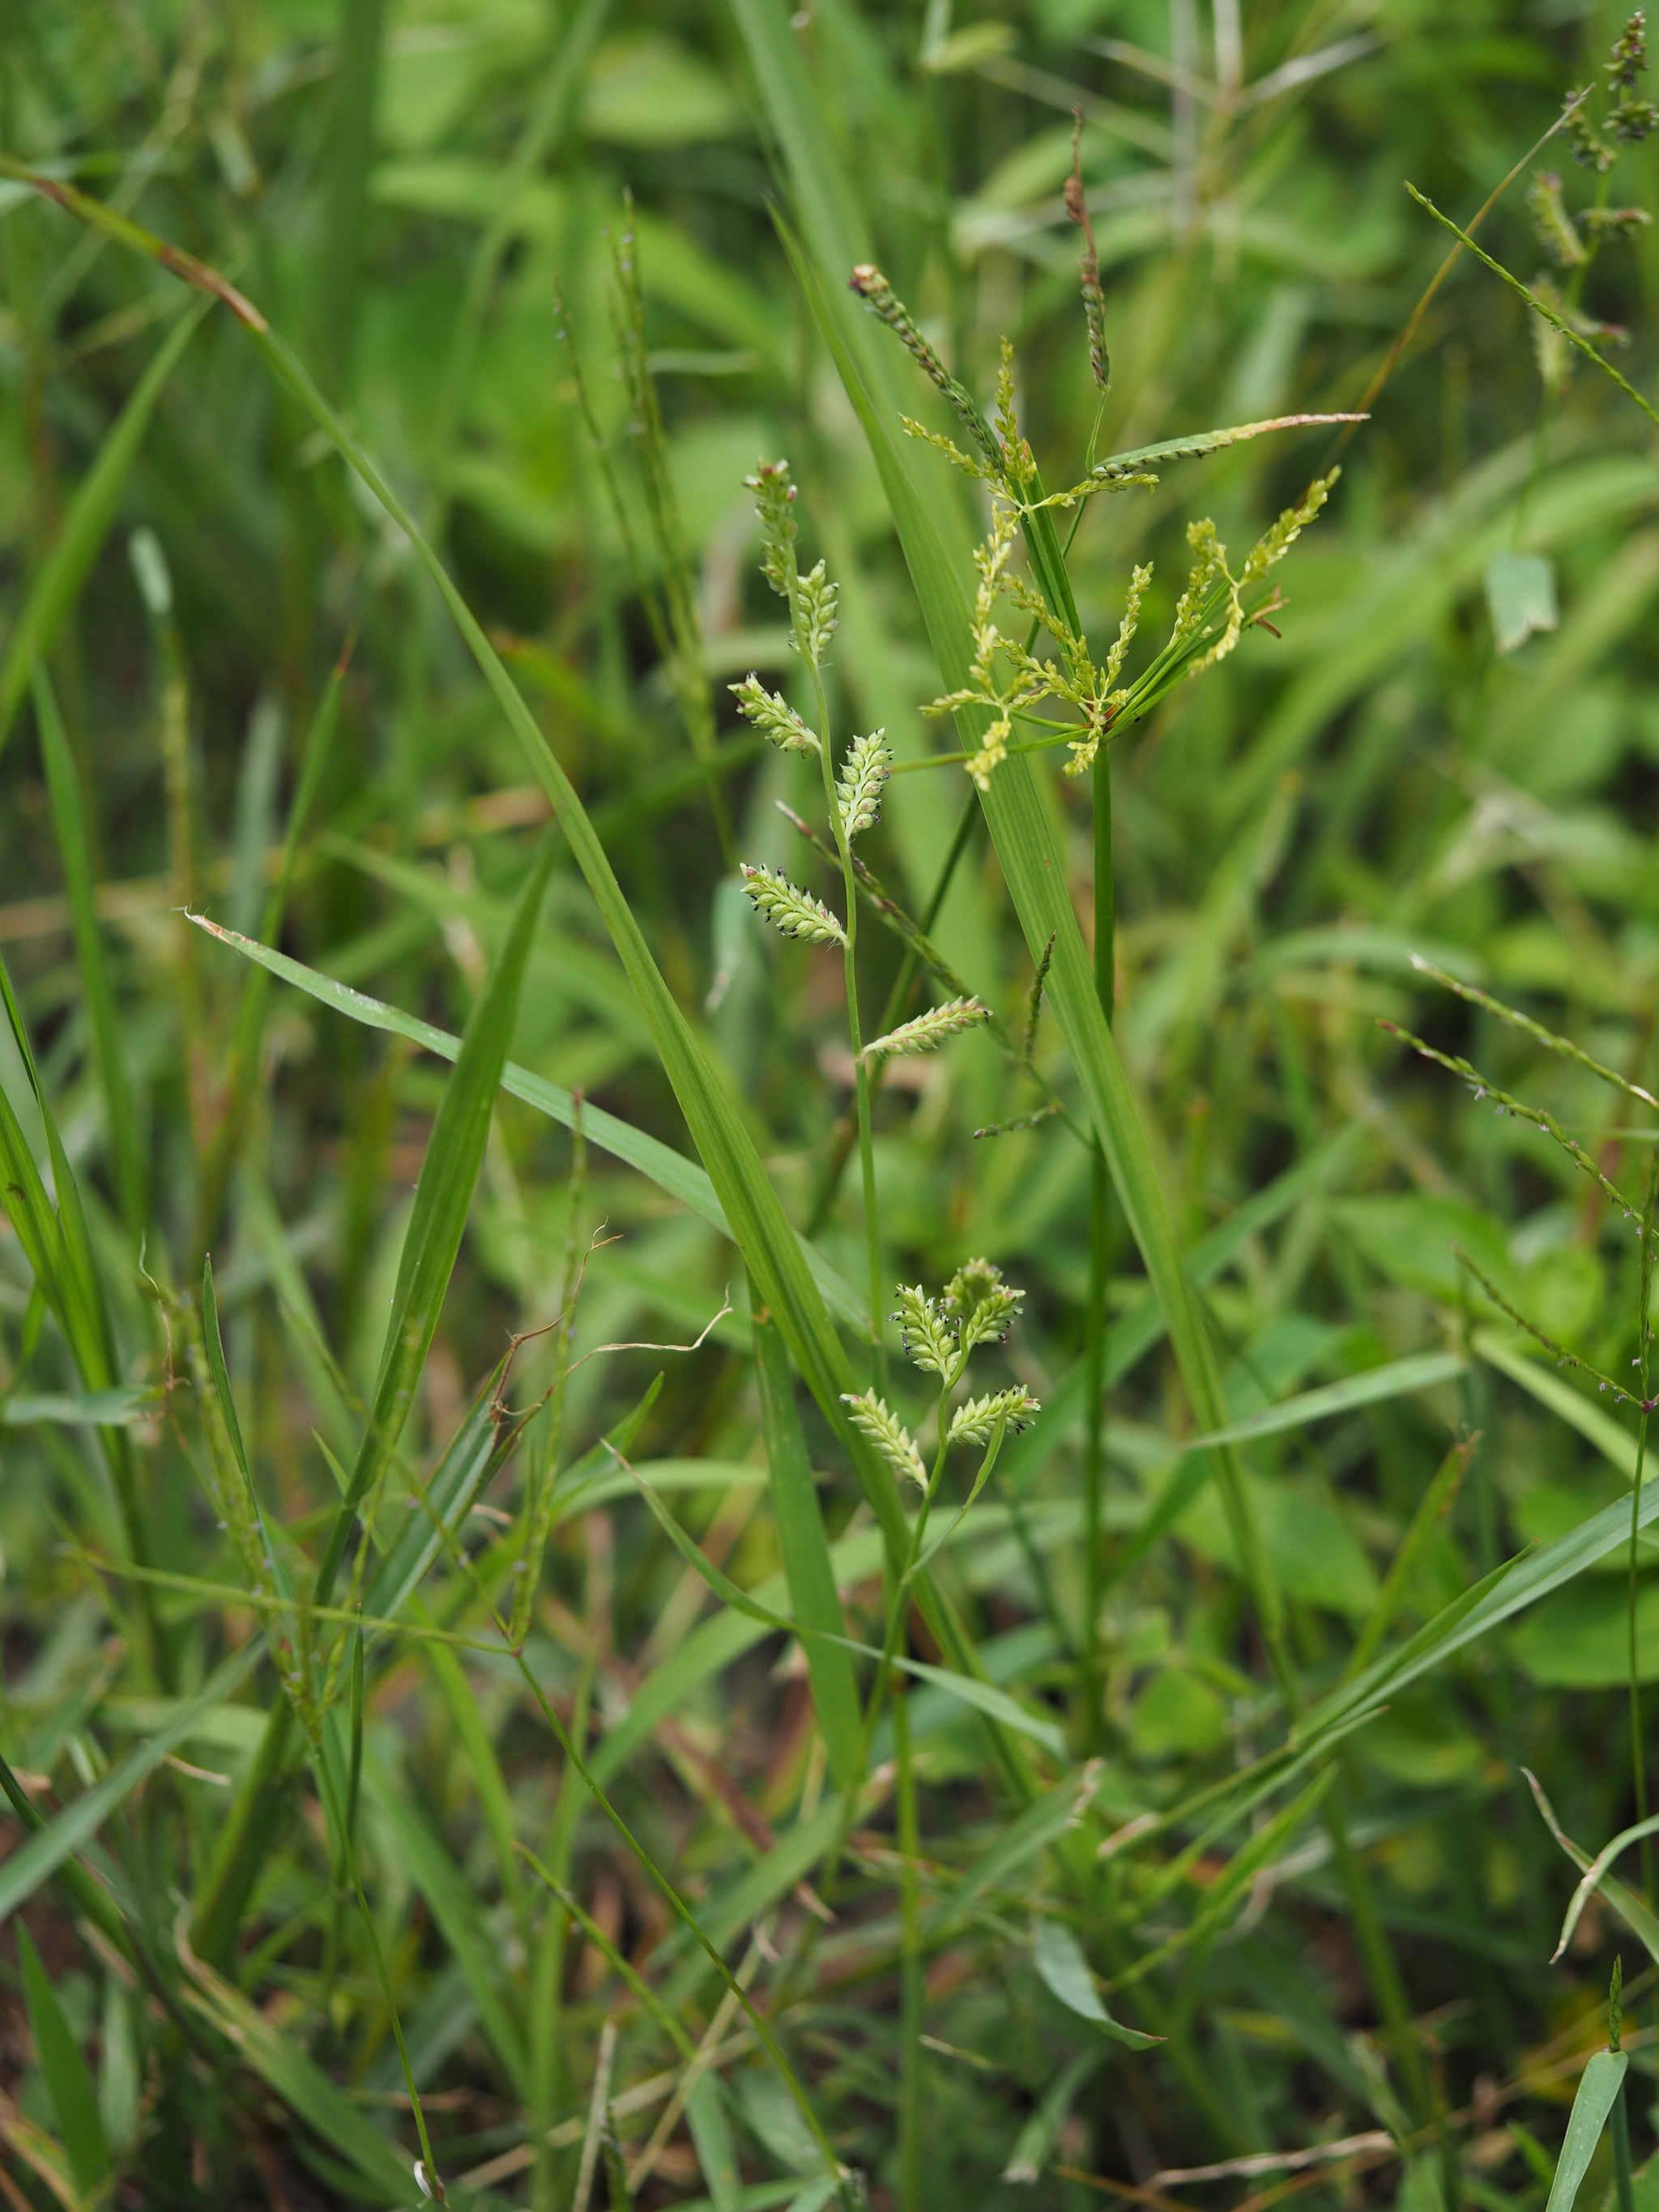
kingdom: Plantae
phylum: Tracheophyta
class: Liliopsida
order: Poales
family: Poaceae
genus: Echinochloa
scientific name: Echinochloa colonum
